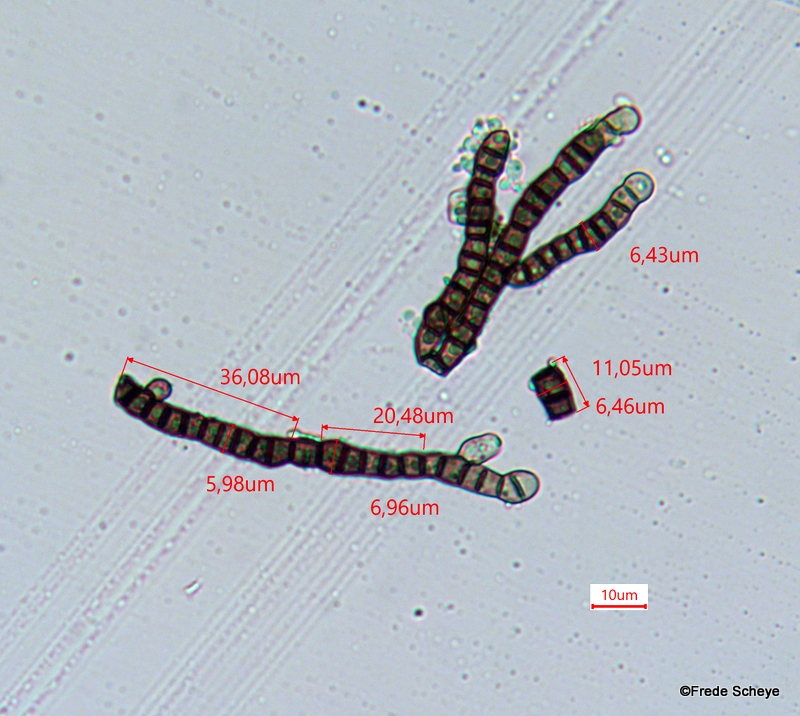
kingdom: Fungi
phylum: Ascomycota
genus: Taeniolina
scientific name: Taeniolina scripta
